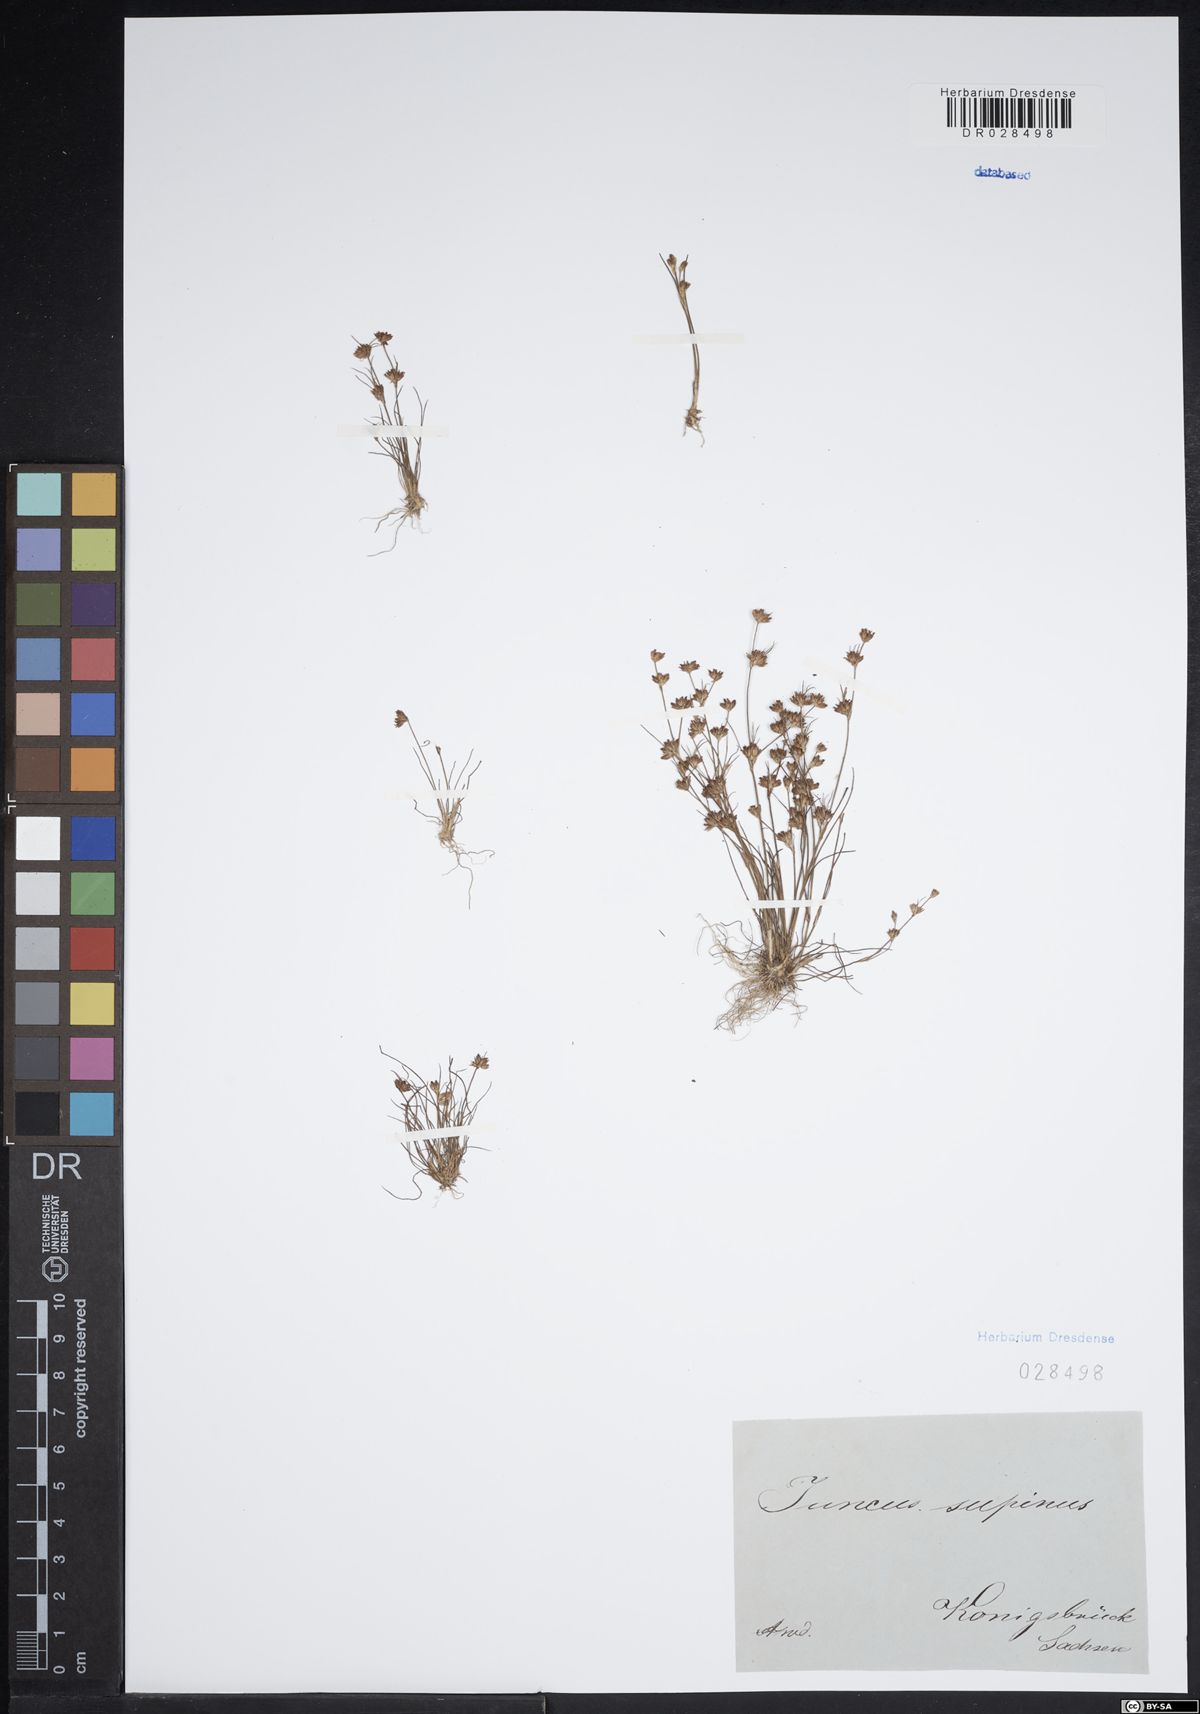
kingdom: Plantae
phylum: Tracheophyta
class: Liliopsida
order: Poales
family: Juncaceae
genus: Juncus
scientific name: Juncus bulbosus
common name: Bulbous rush
